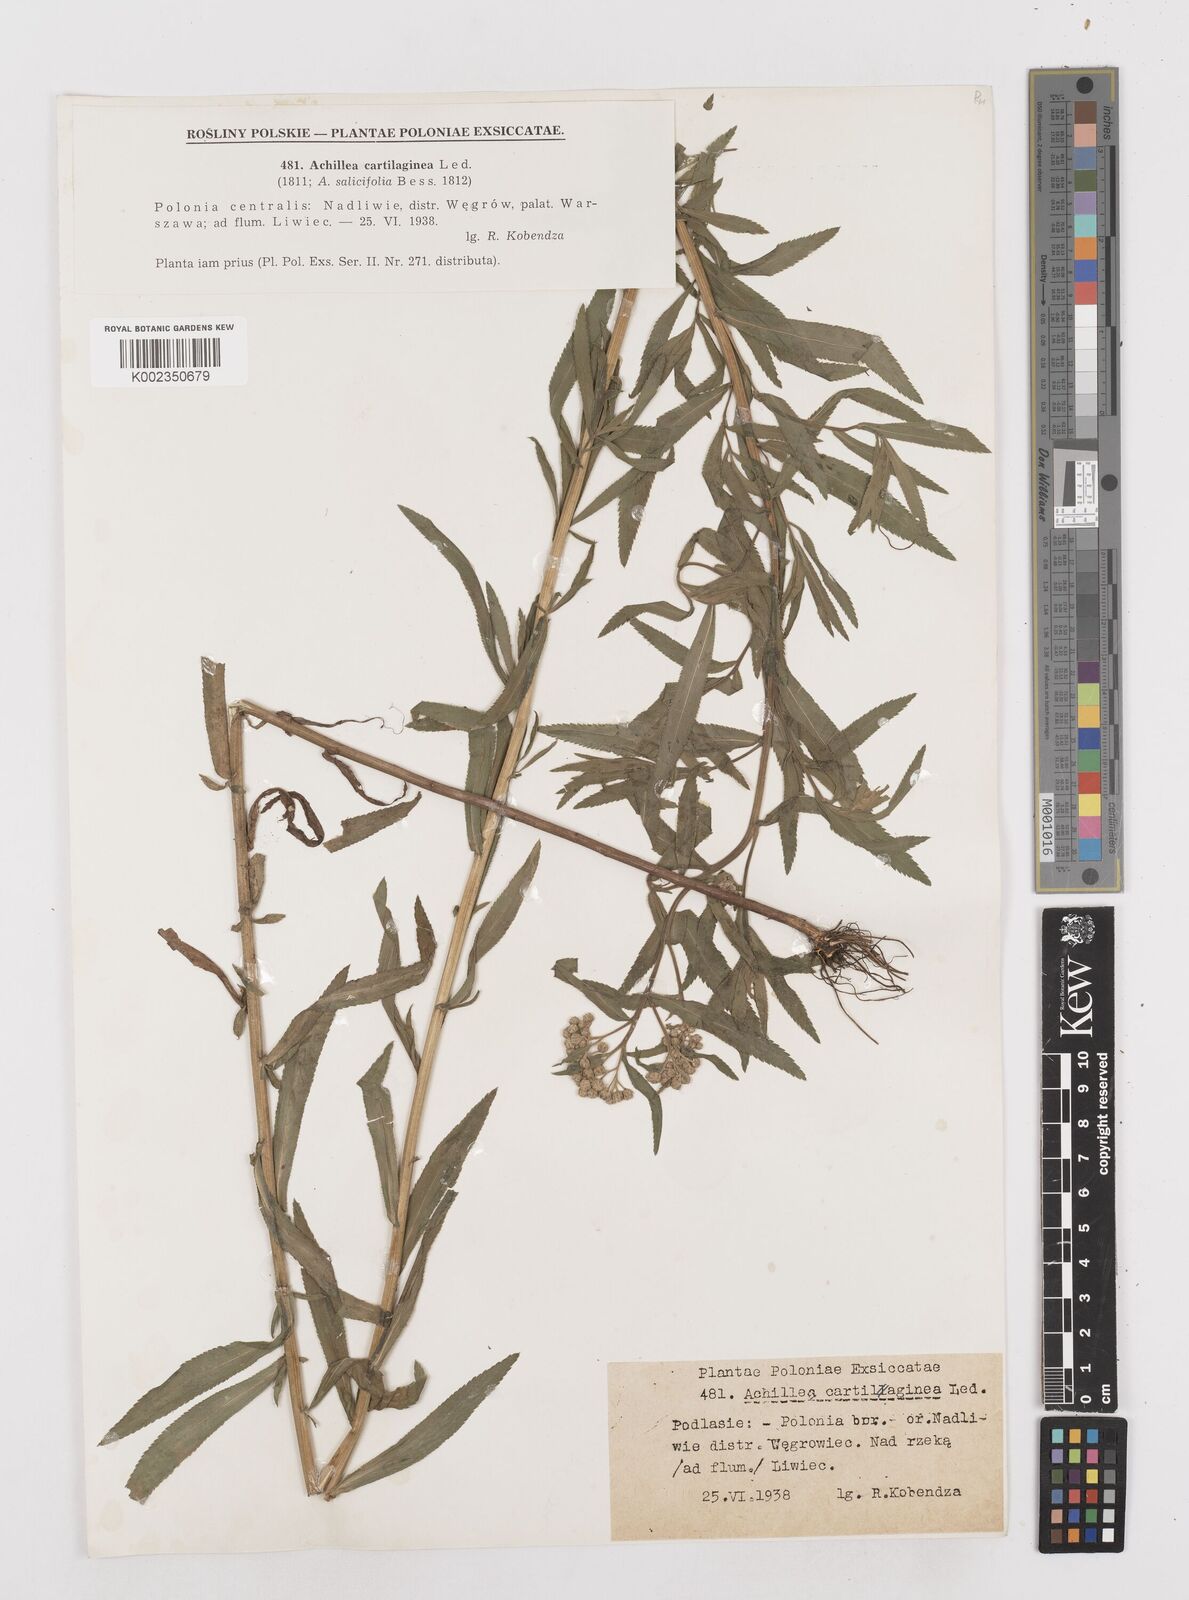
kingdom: Plantae
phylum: Tracheophyta
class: Magnoliopsida
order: Asterales
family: Asteraceae
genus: Achillea
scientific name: Achillea salicifolia
